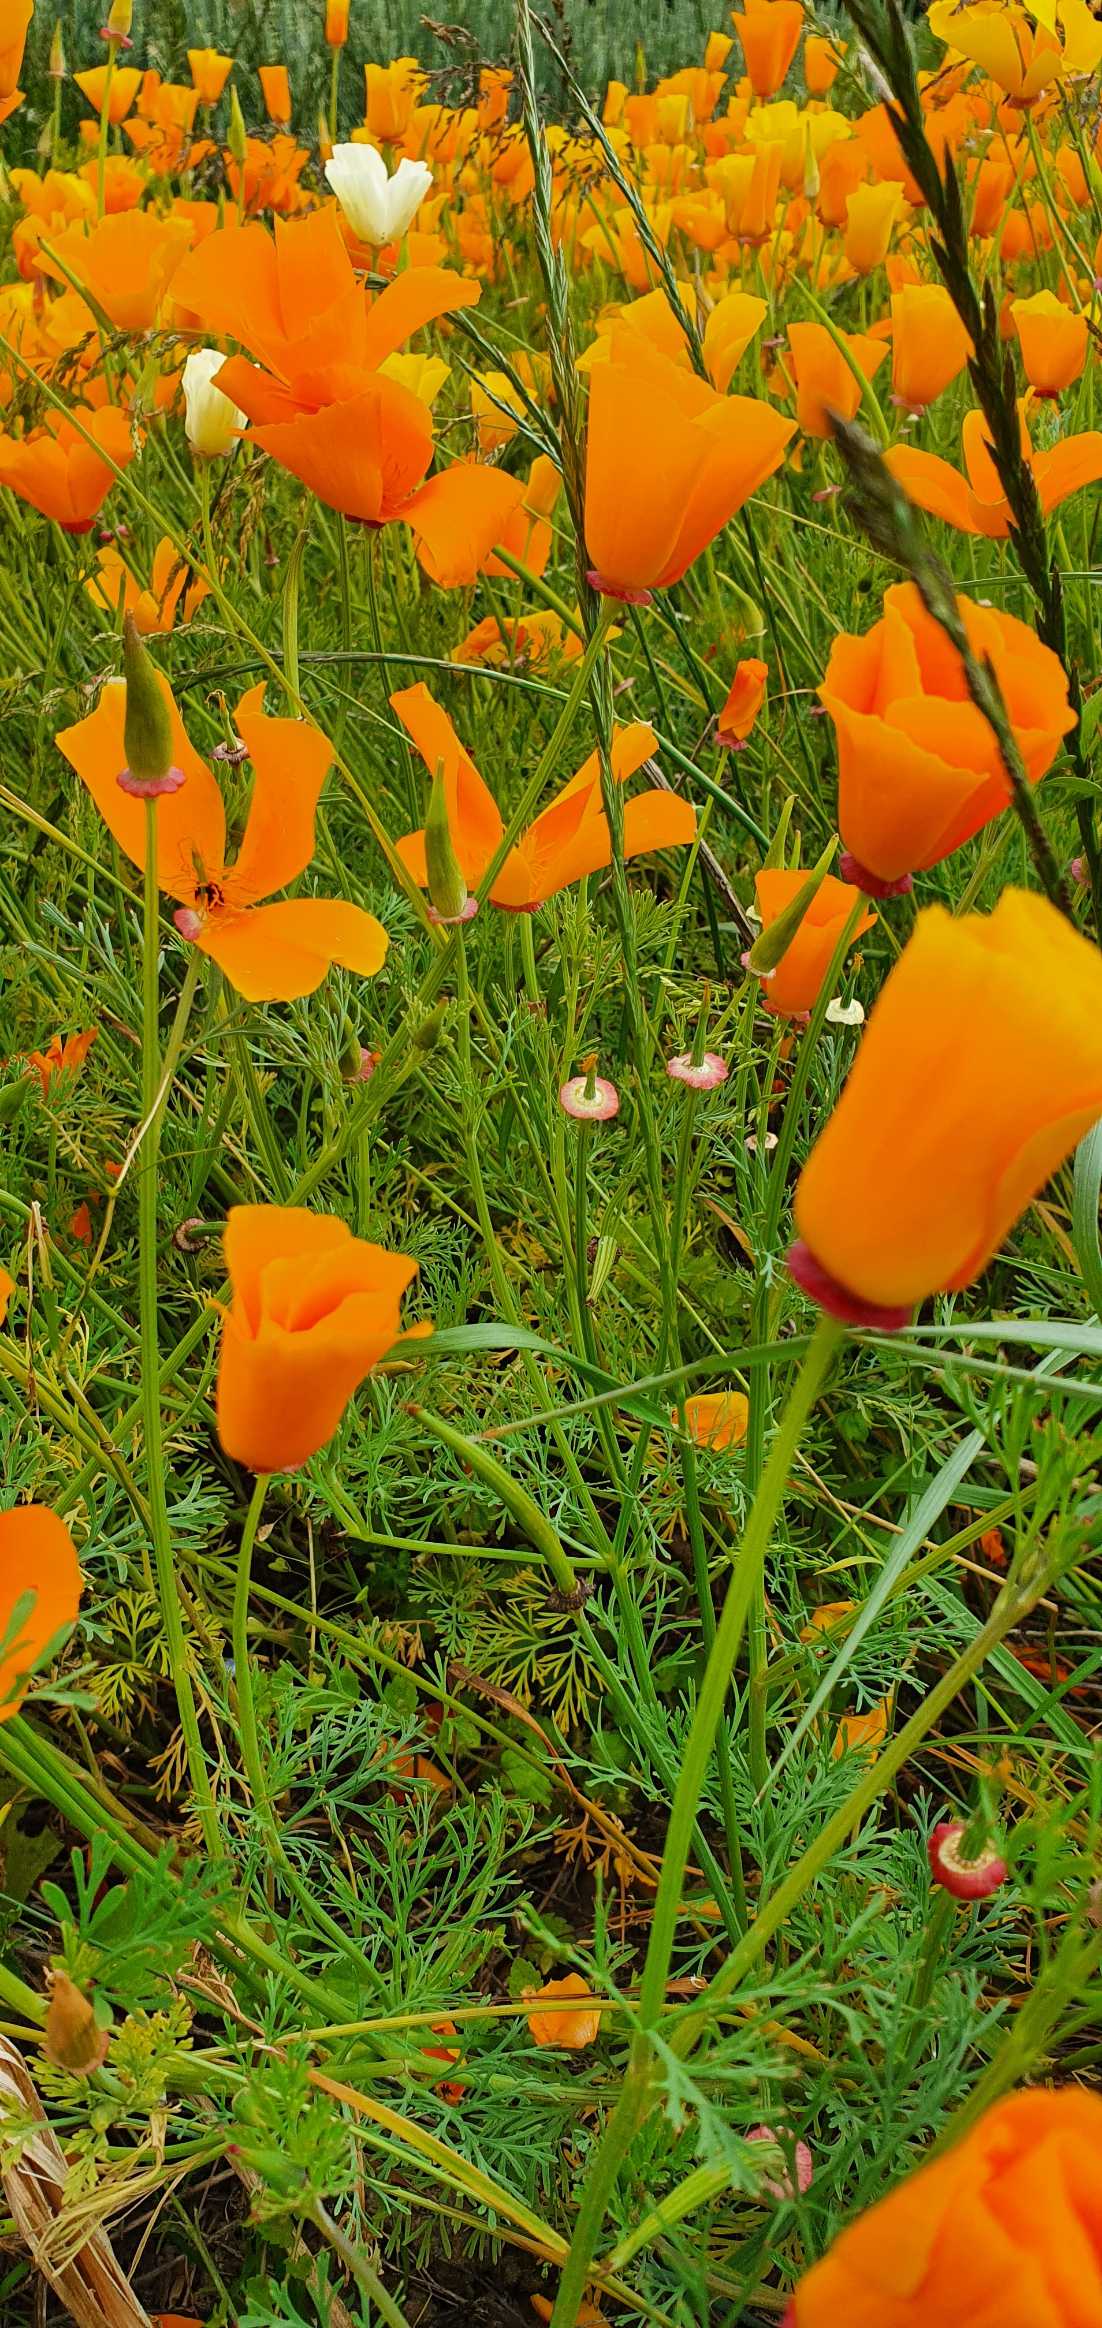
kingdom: Plantae
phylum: Tracheophyta
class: Magnoliopsida
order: Ranunculales
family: Papaveraceae
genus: Eschscholzia
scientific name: Eschscholzia californica
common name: Guldvalmue
